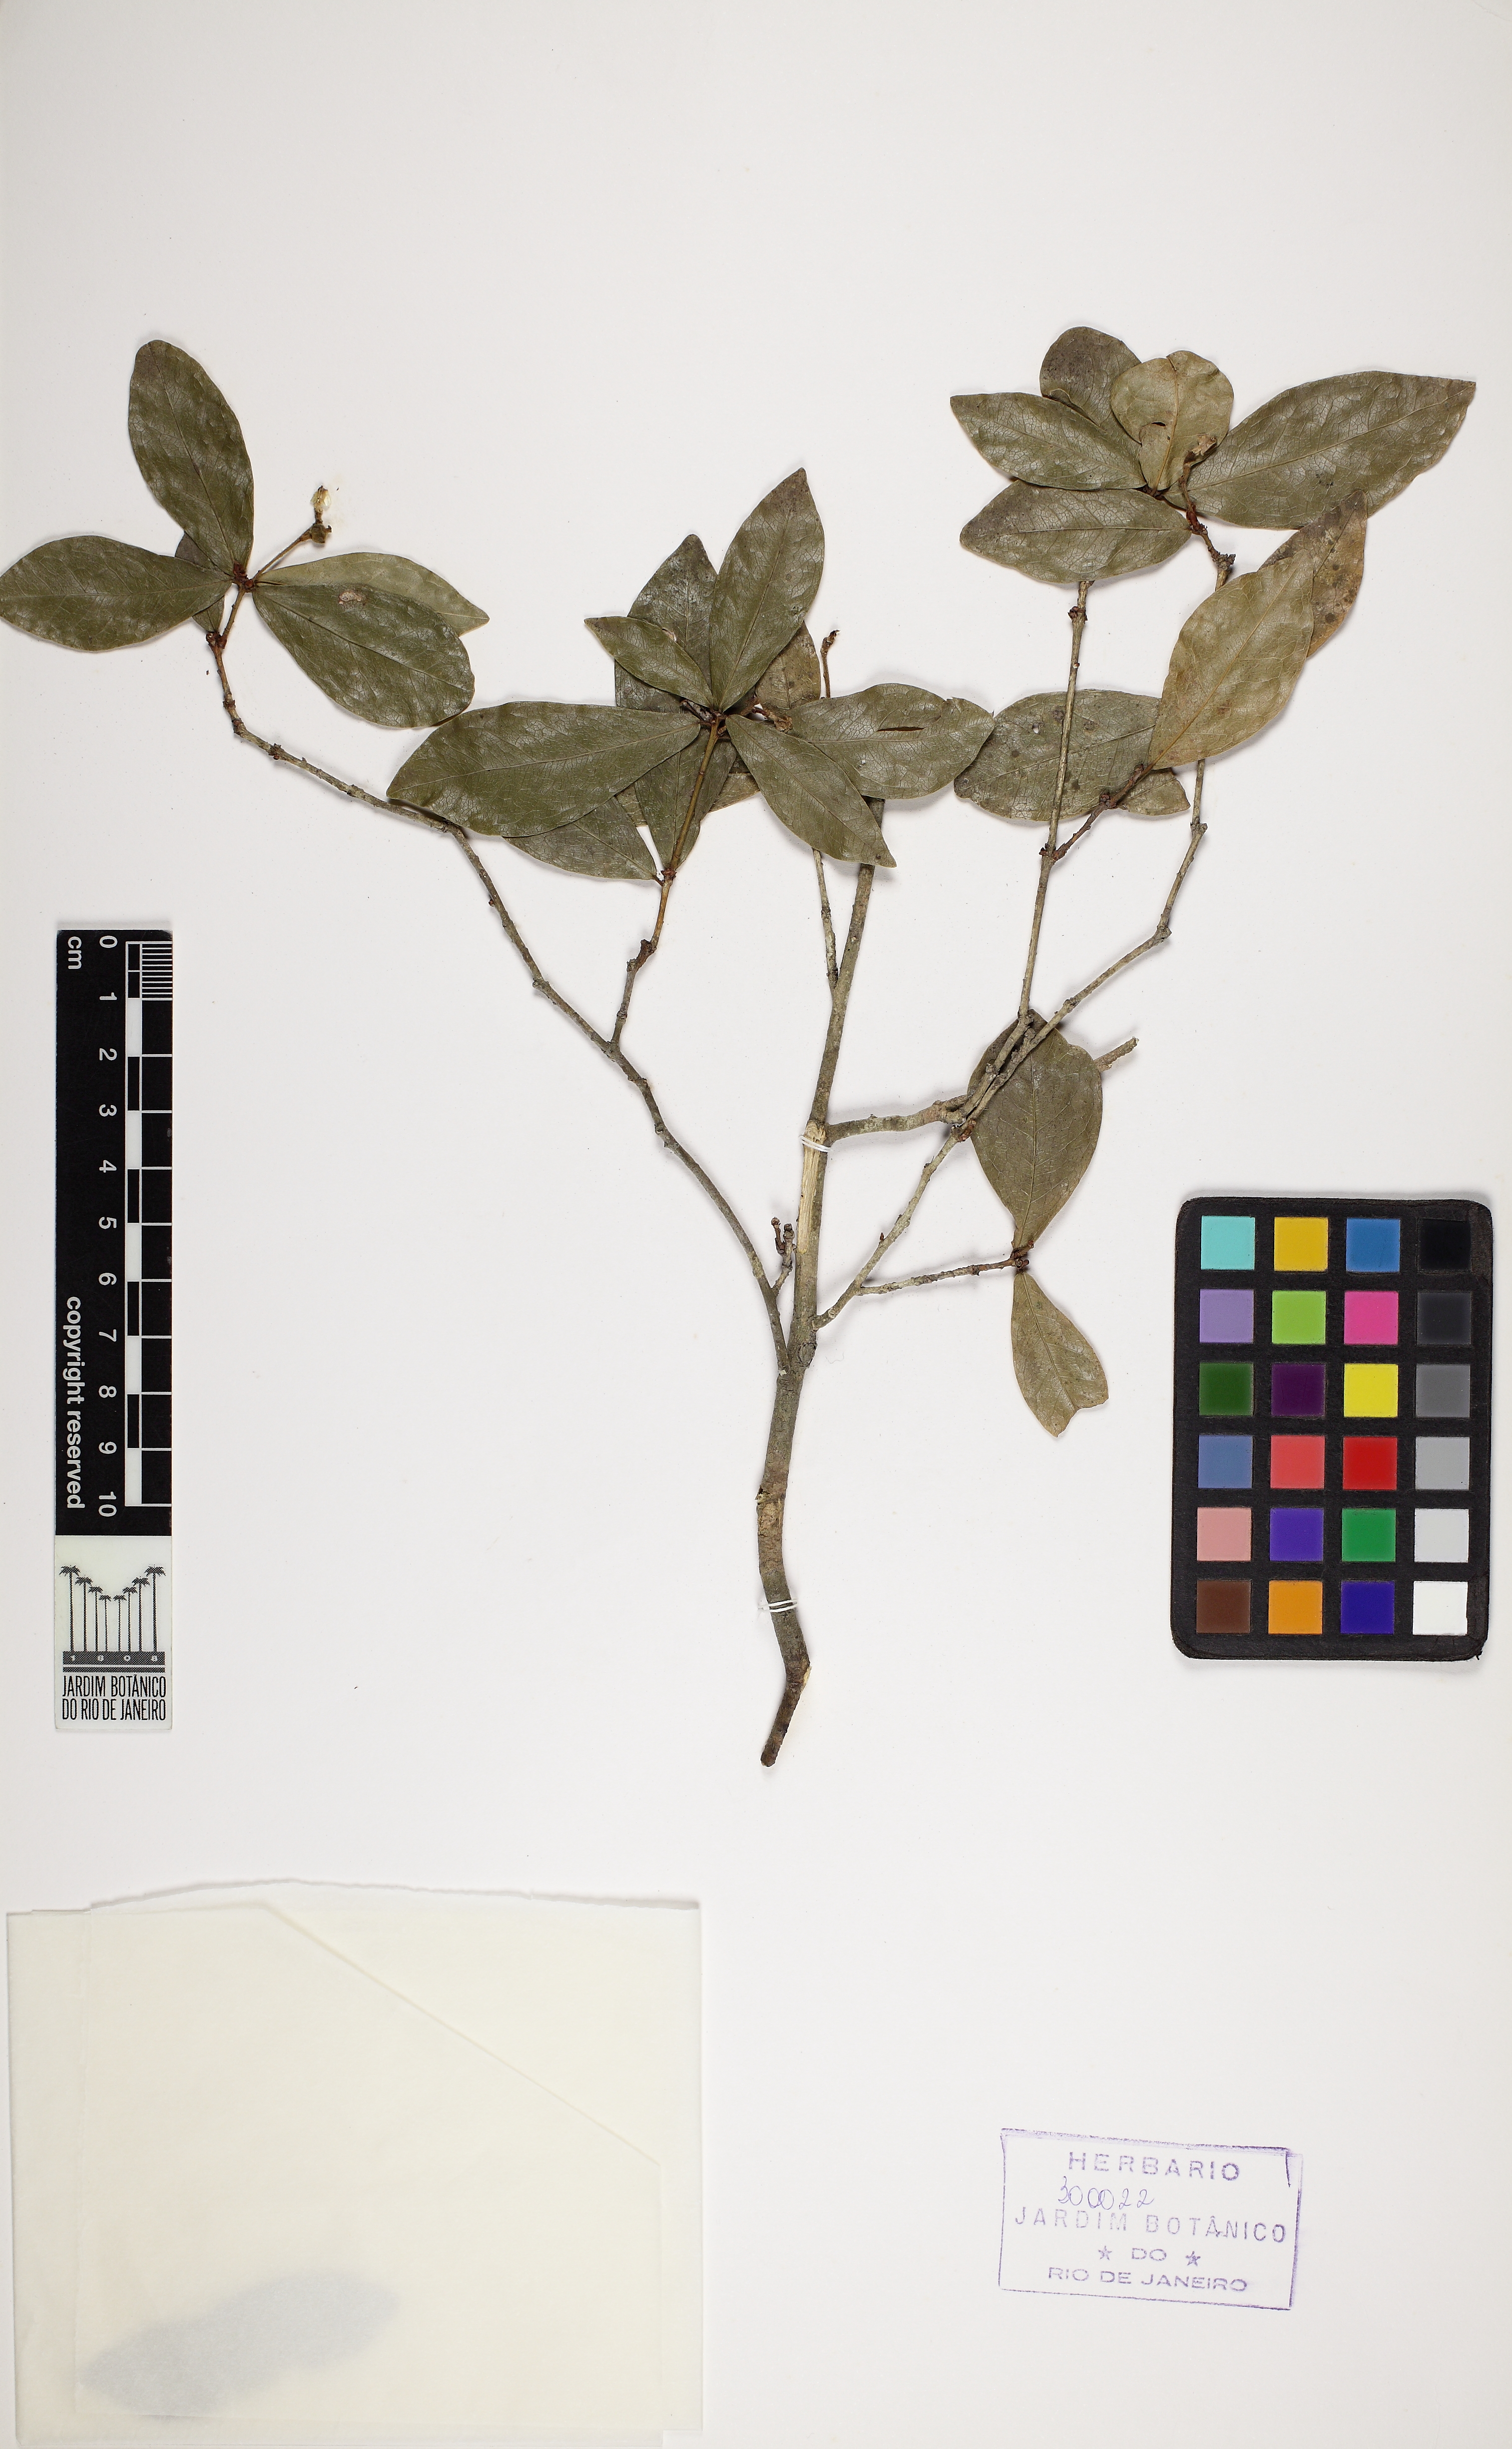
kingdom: Plantae
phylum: Tracheophyta
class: Magnoliopsida
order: Malpighiales
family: Euphorbiaceae
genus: Actinostemon
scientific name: Actinostemon verticillatus
